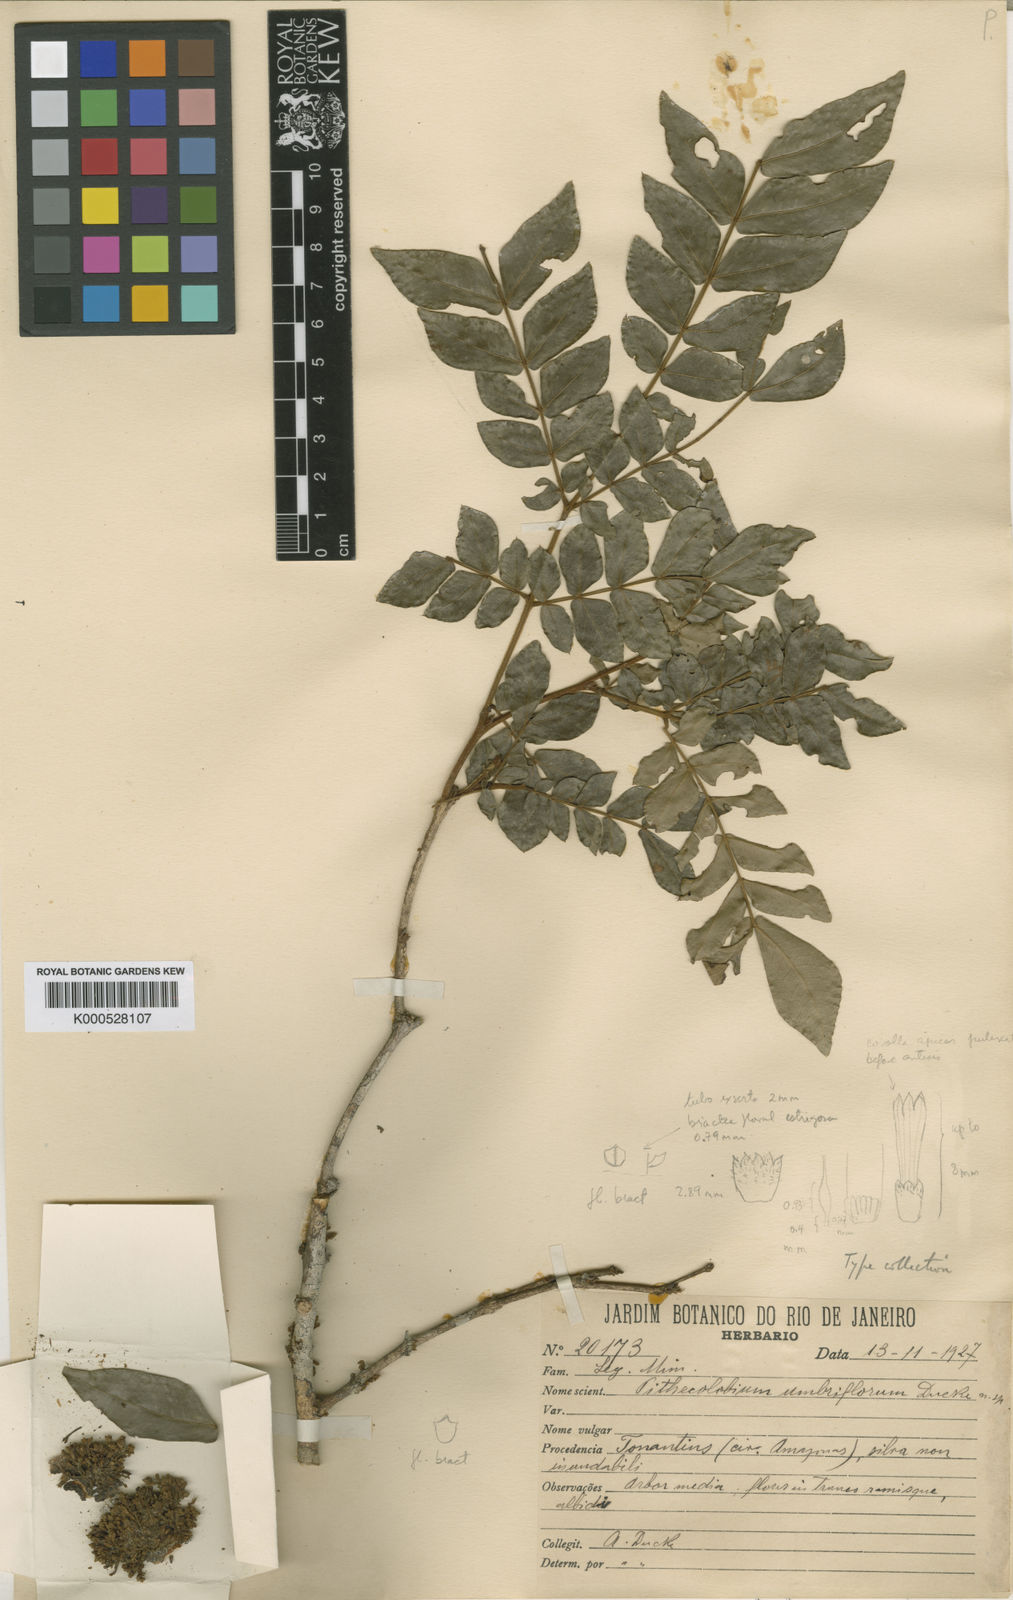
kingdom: Plantae
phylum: Tracheophyta
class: Magnoliopsida
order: Fabales
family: Fabaceae
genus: Marmaroxylon
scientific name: Marmaroxylon
